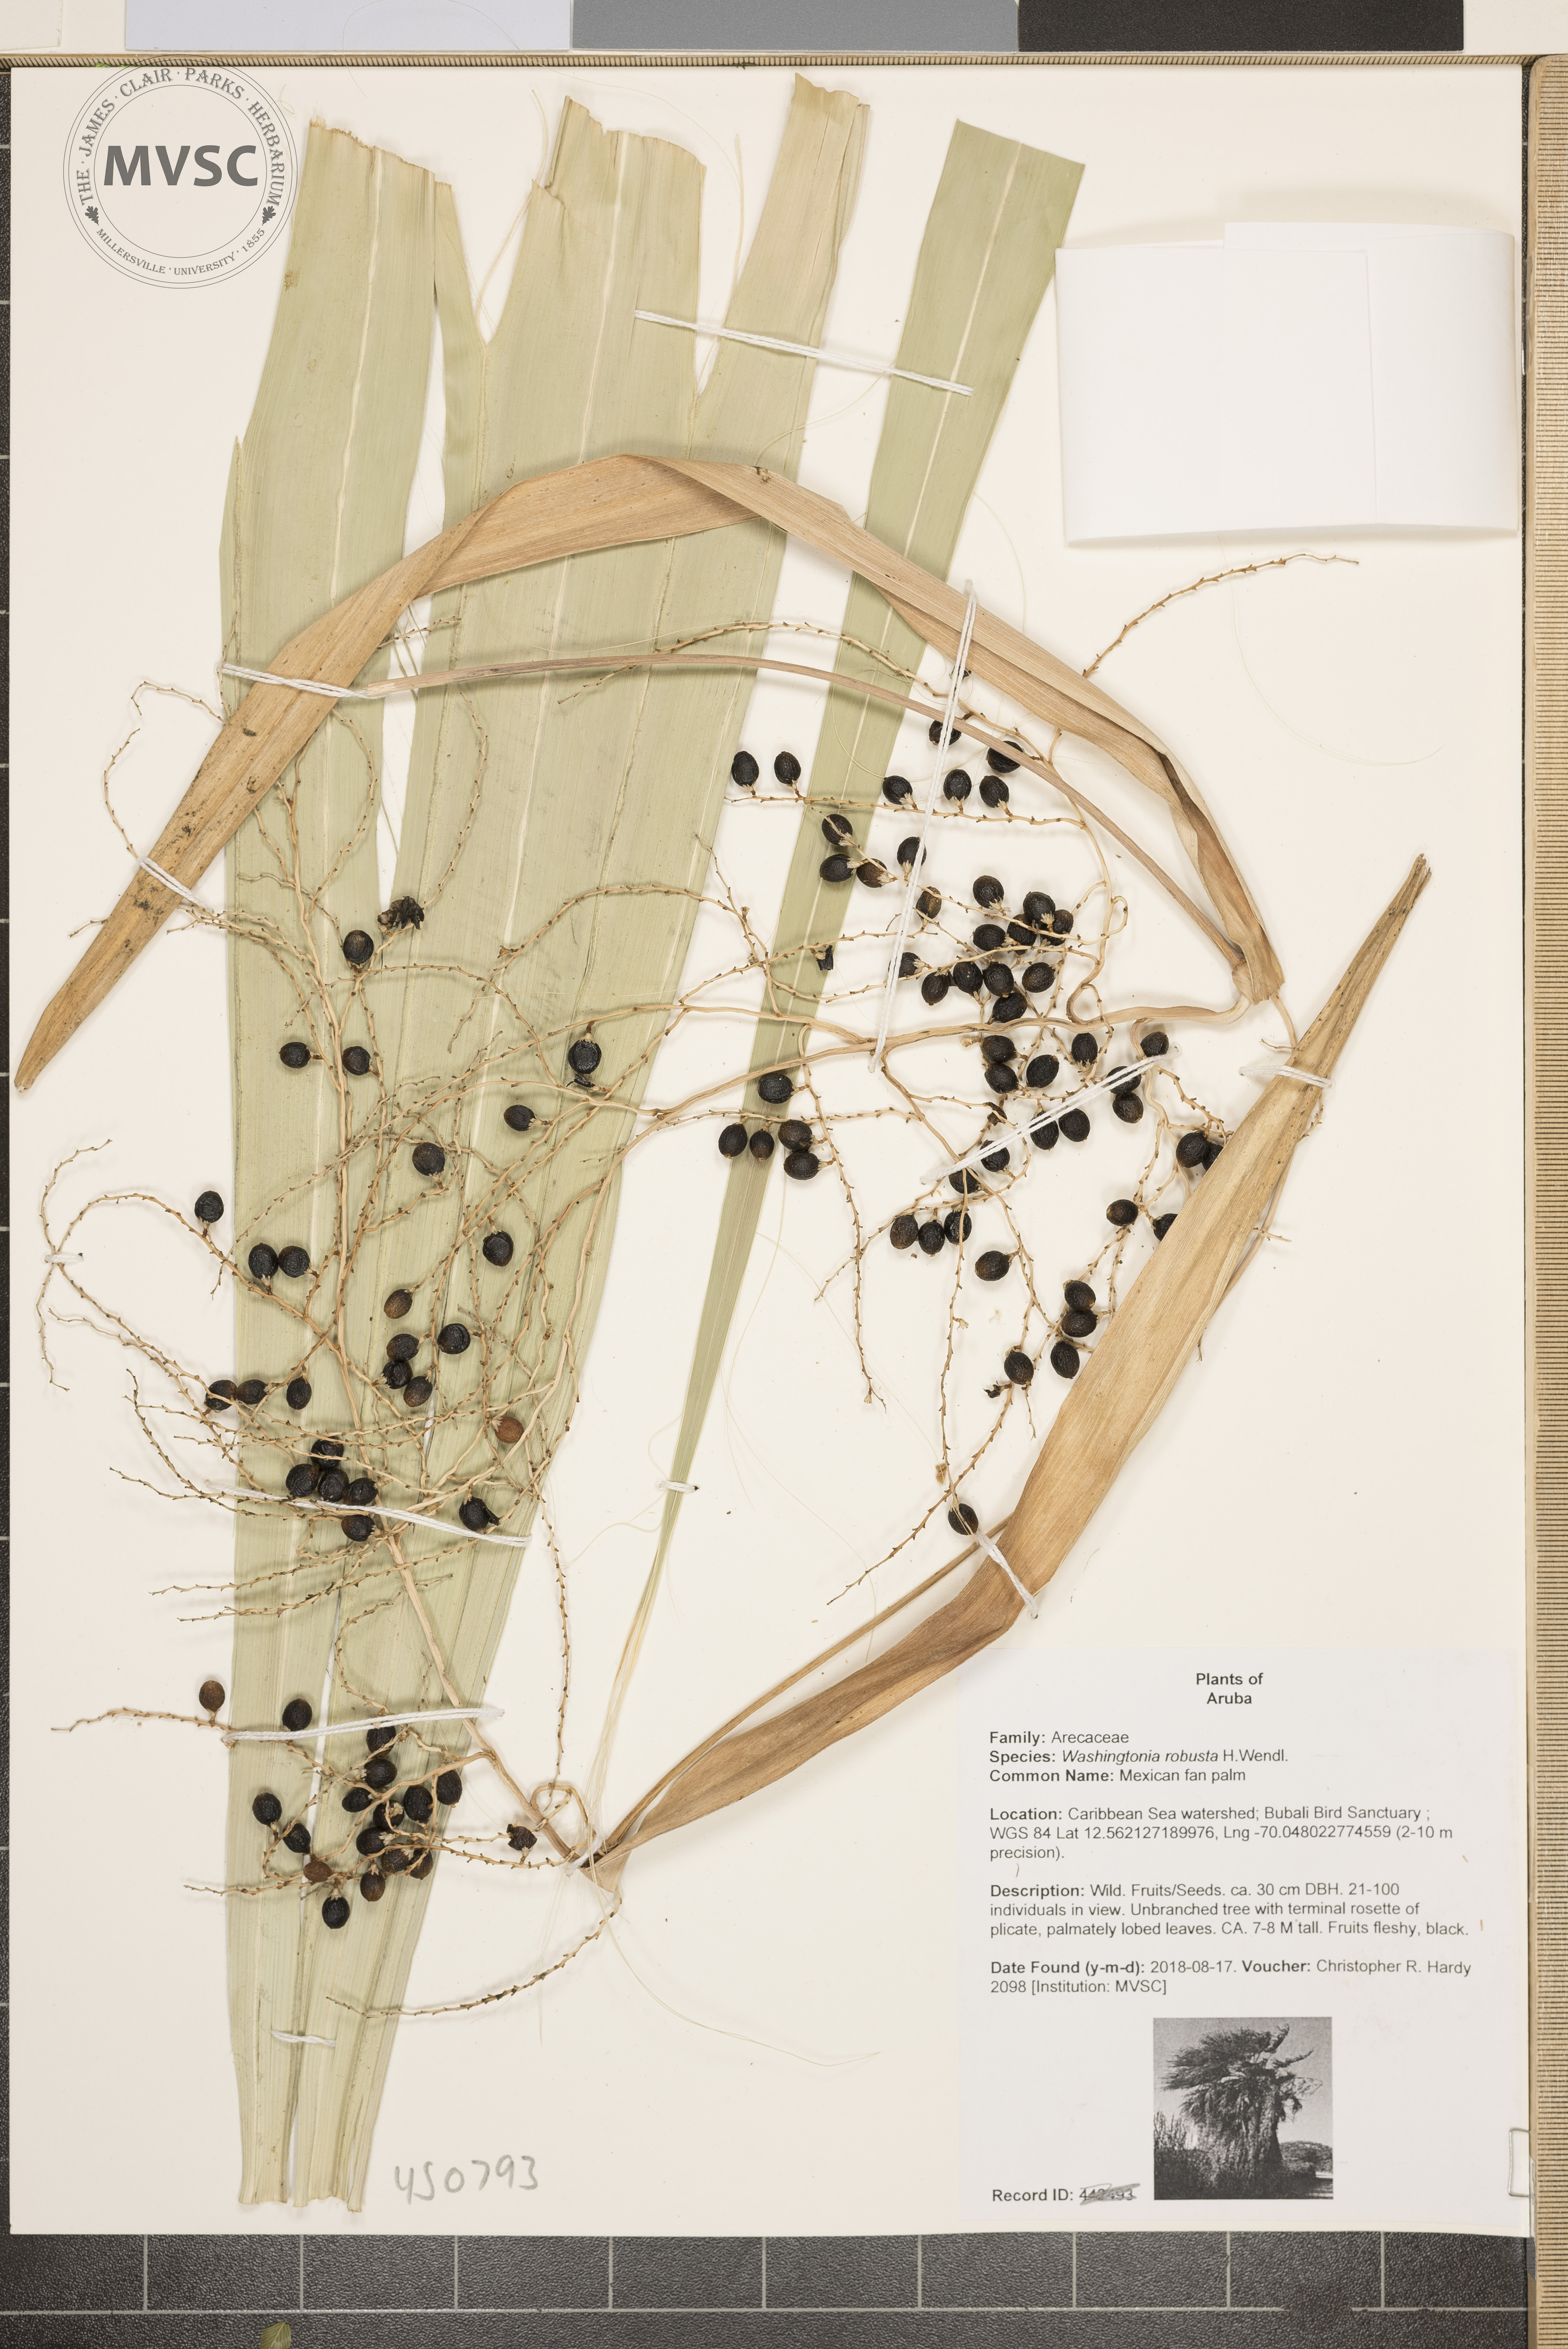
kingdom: Plantae
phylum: Tracheophyta
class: Liliopsida
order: Arecales
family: Arecaceae
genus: Washingtonia
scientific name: Washingtonia robusta
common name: Mexican fan palm
